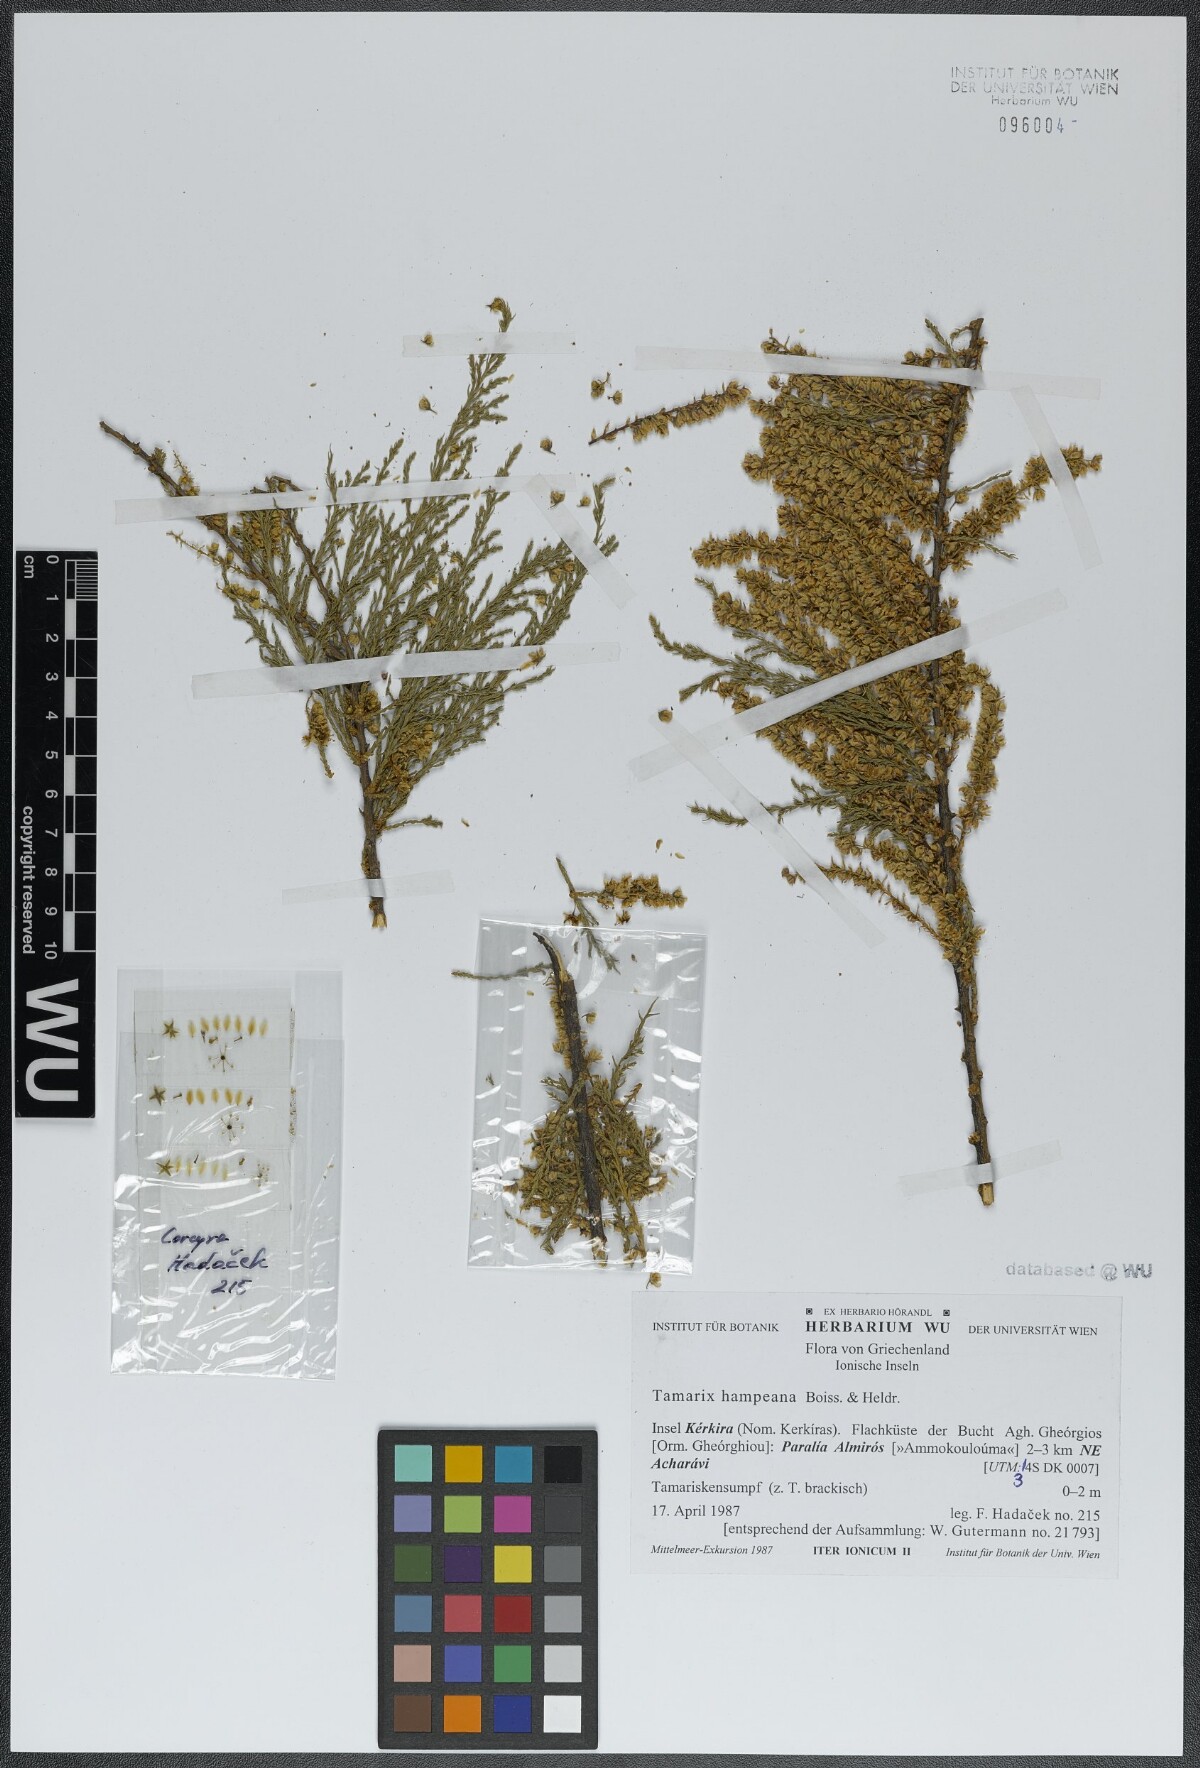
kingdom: Plantae
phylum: Tracheophyta
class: Magnoliopsida
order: Caryophyllales
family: Tamaricaceae
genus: Tamarix
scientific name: Tamarix hampeana
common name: Hampe’s tamarisk
